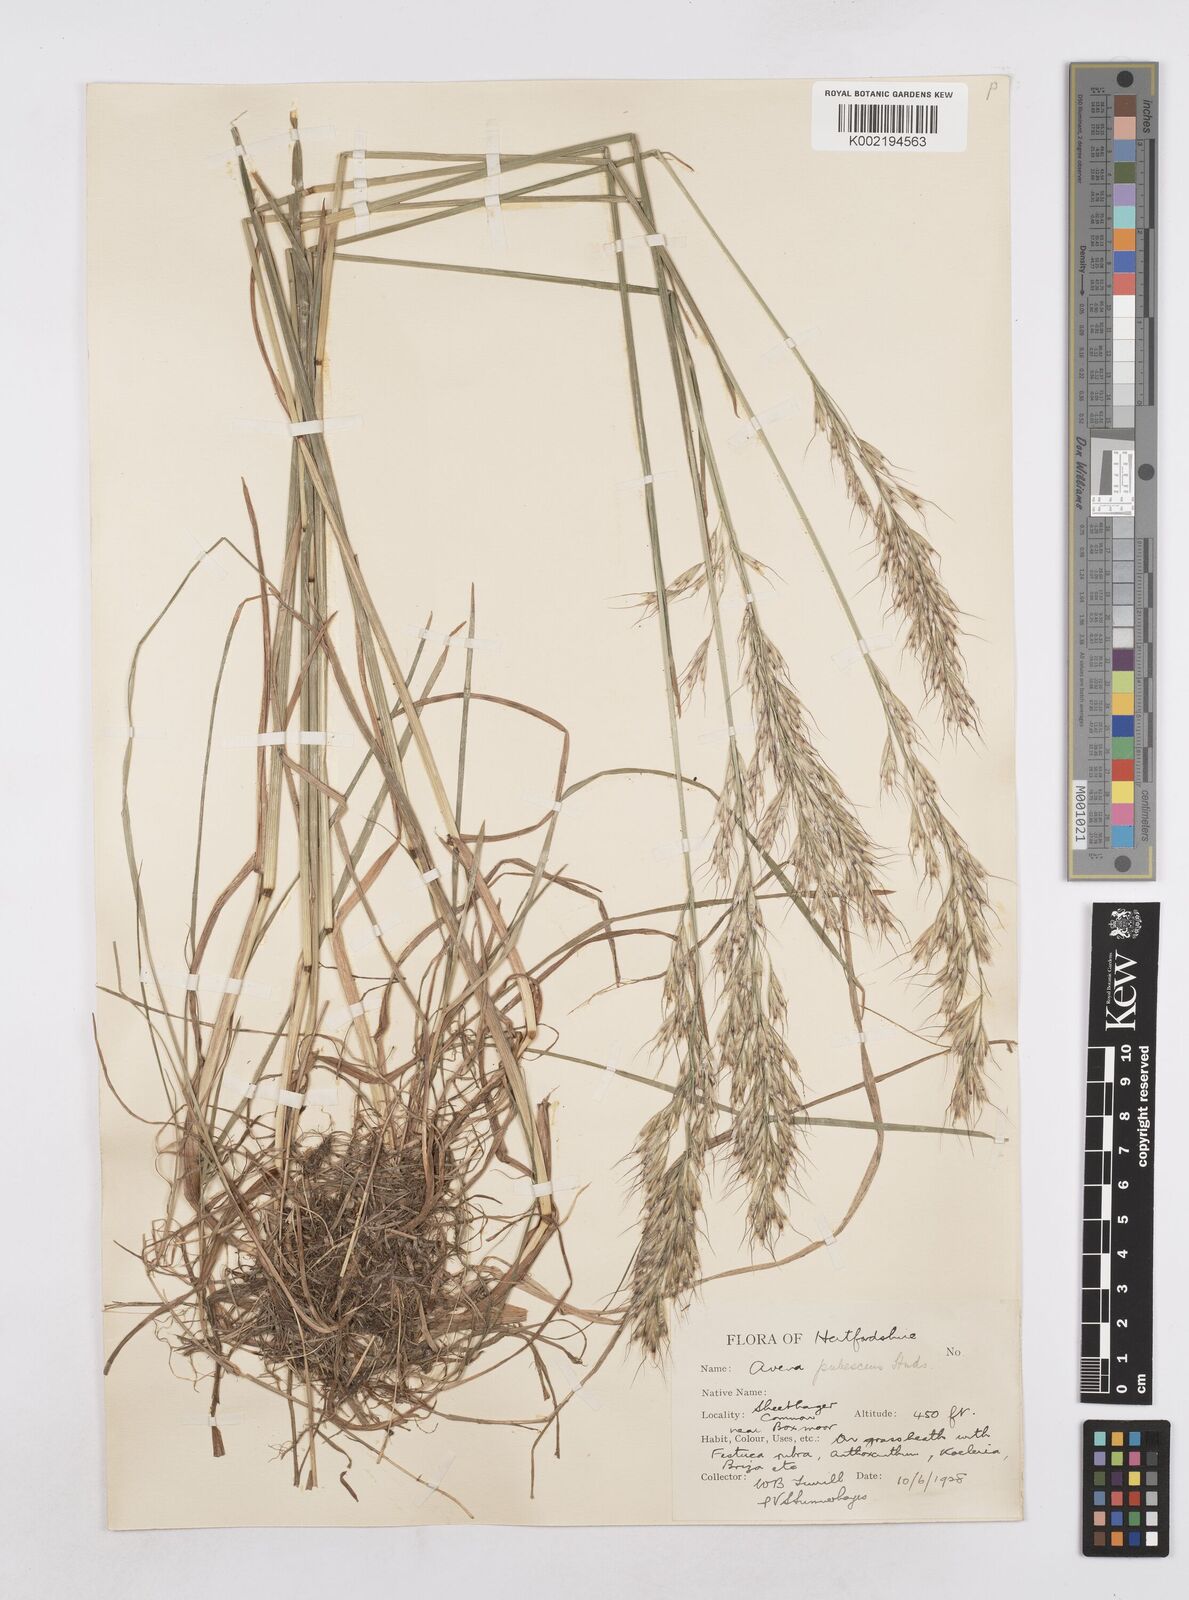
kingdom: Plantae
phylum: Tracheophyta
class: Liliopsida
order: Poales
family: Poaceae
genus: Avenula
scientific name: Avenula pubescens
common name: Downy alpine oatgrass
